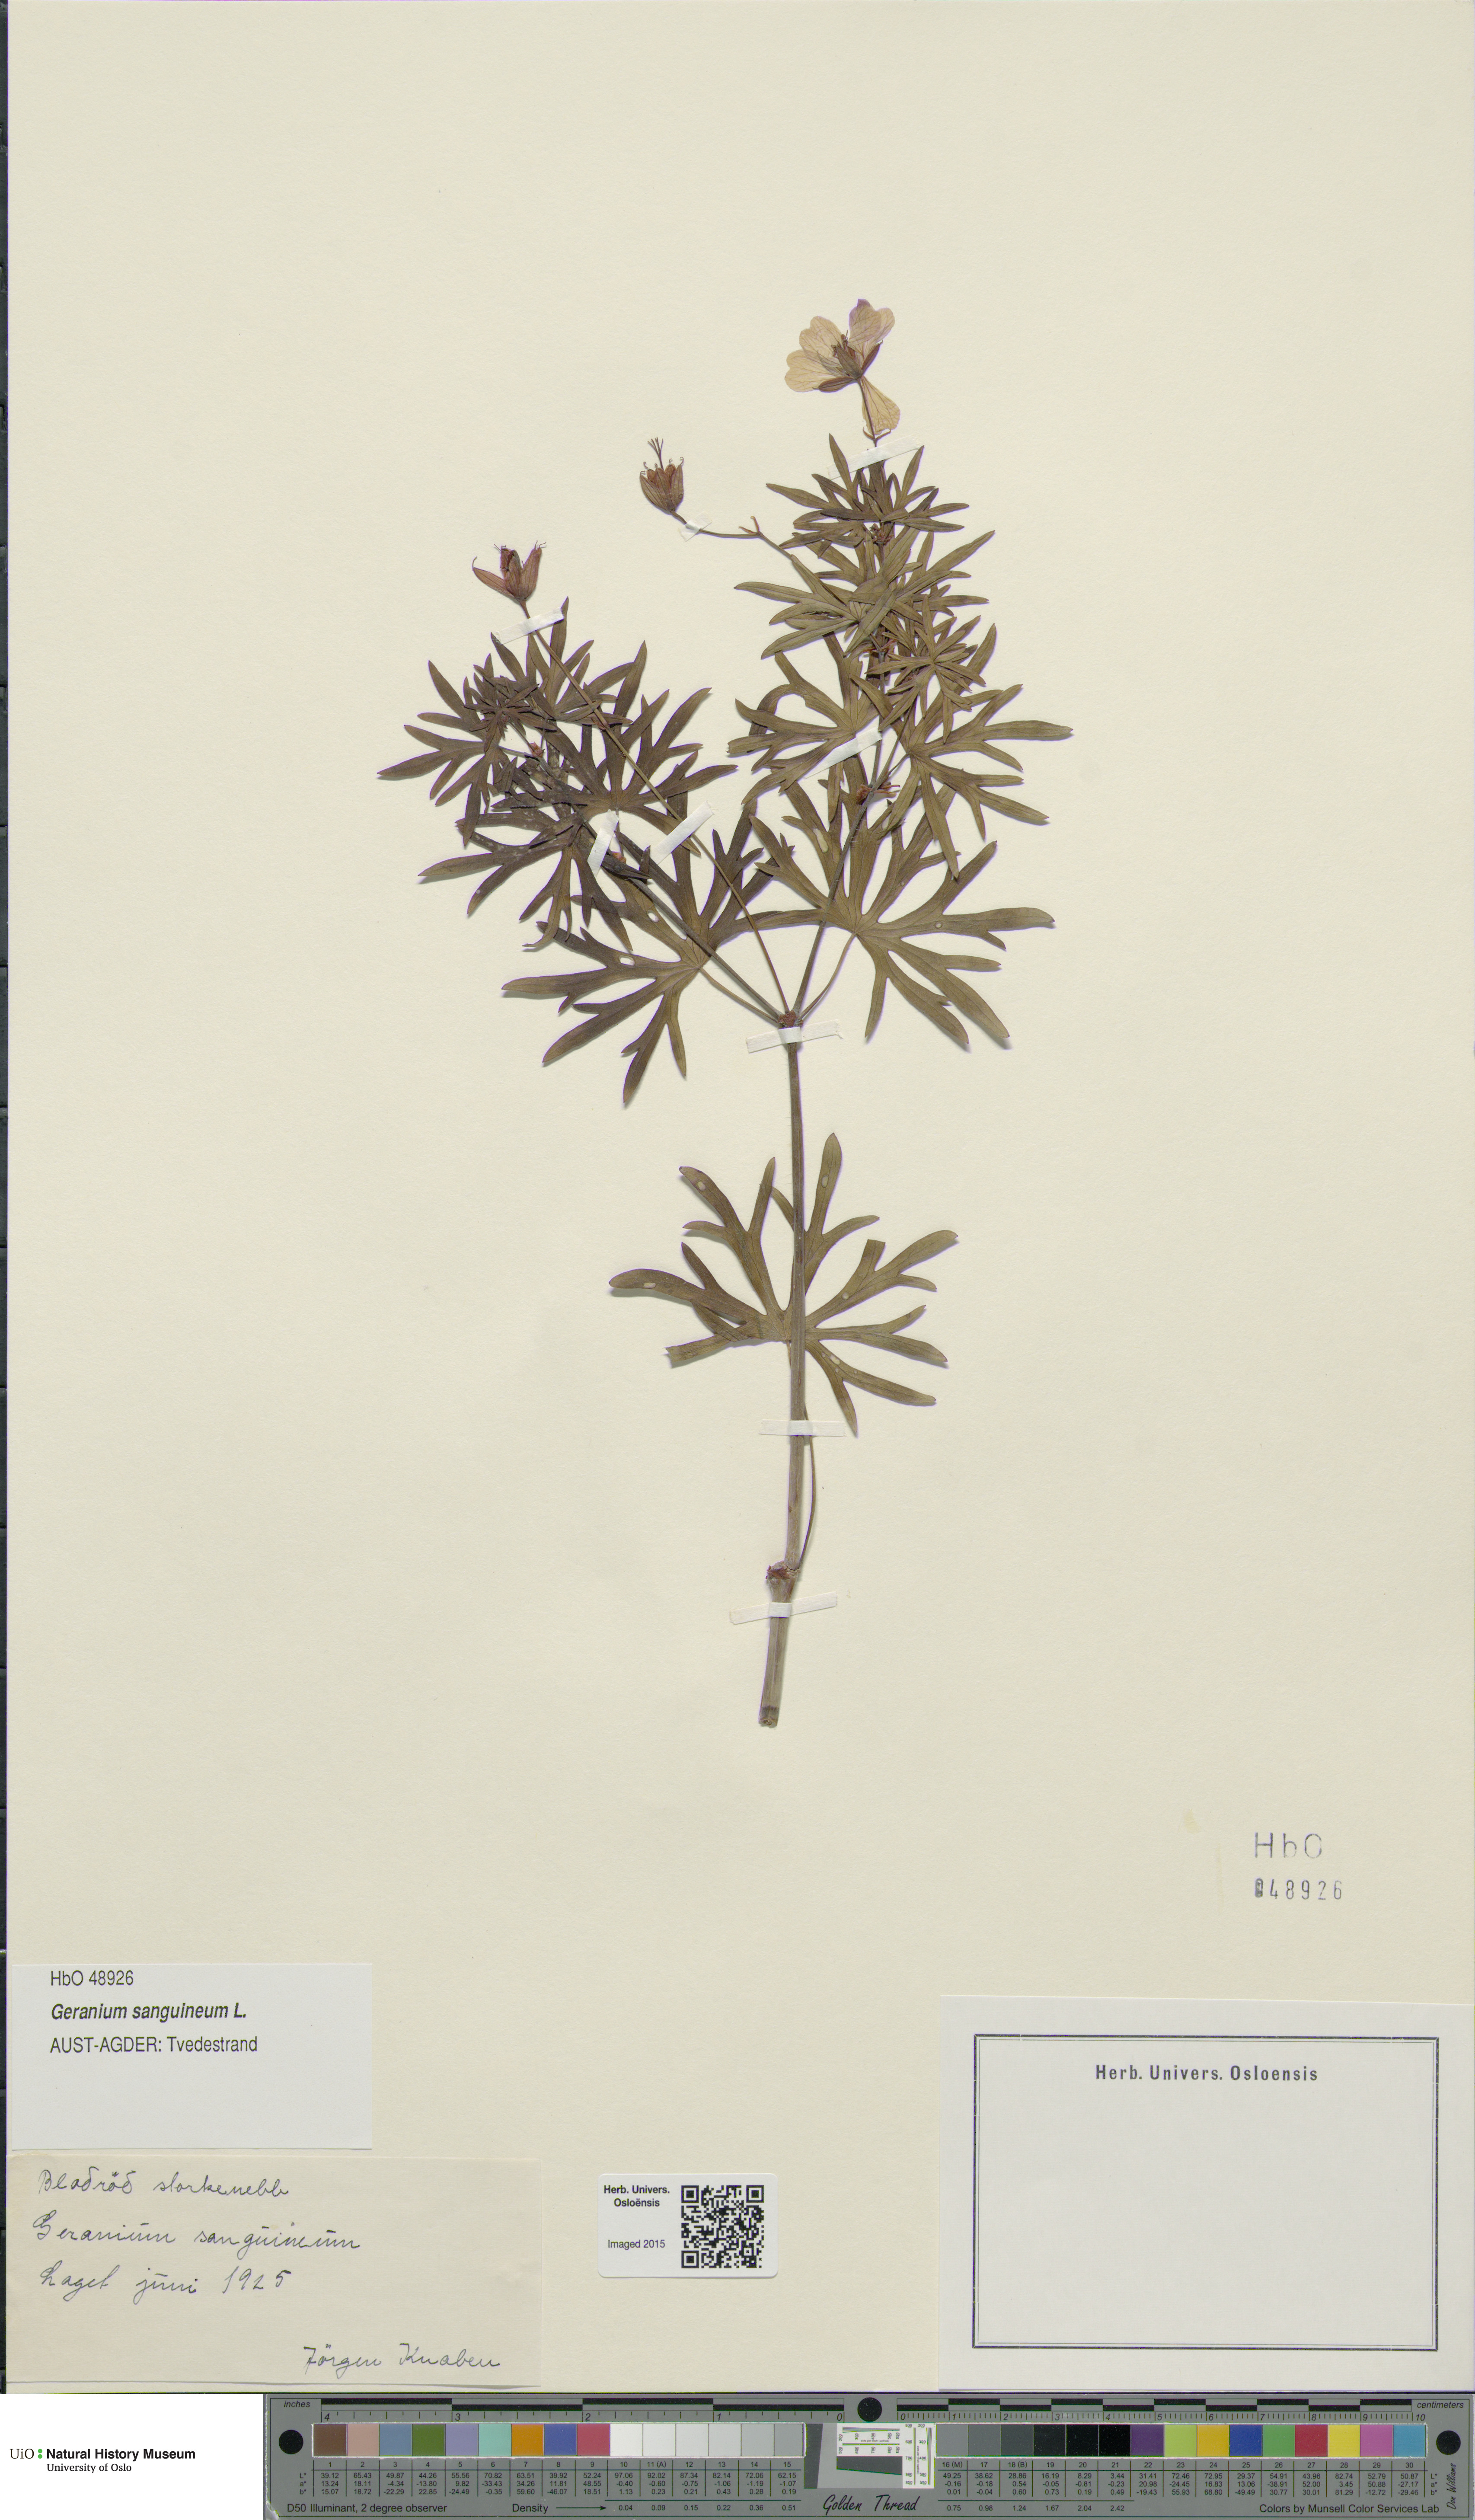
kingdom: Plantae
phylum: Tracheophyta
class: Magnoliopsida
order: Geraniales
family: Geraniaceae
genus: Geranium
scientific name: Geranium sanguineum
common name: Bloody crane's-bill
